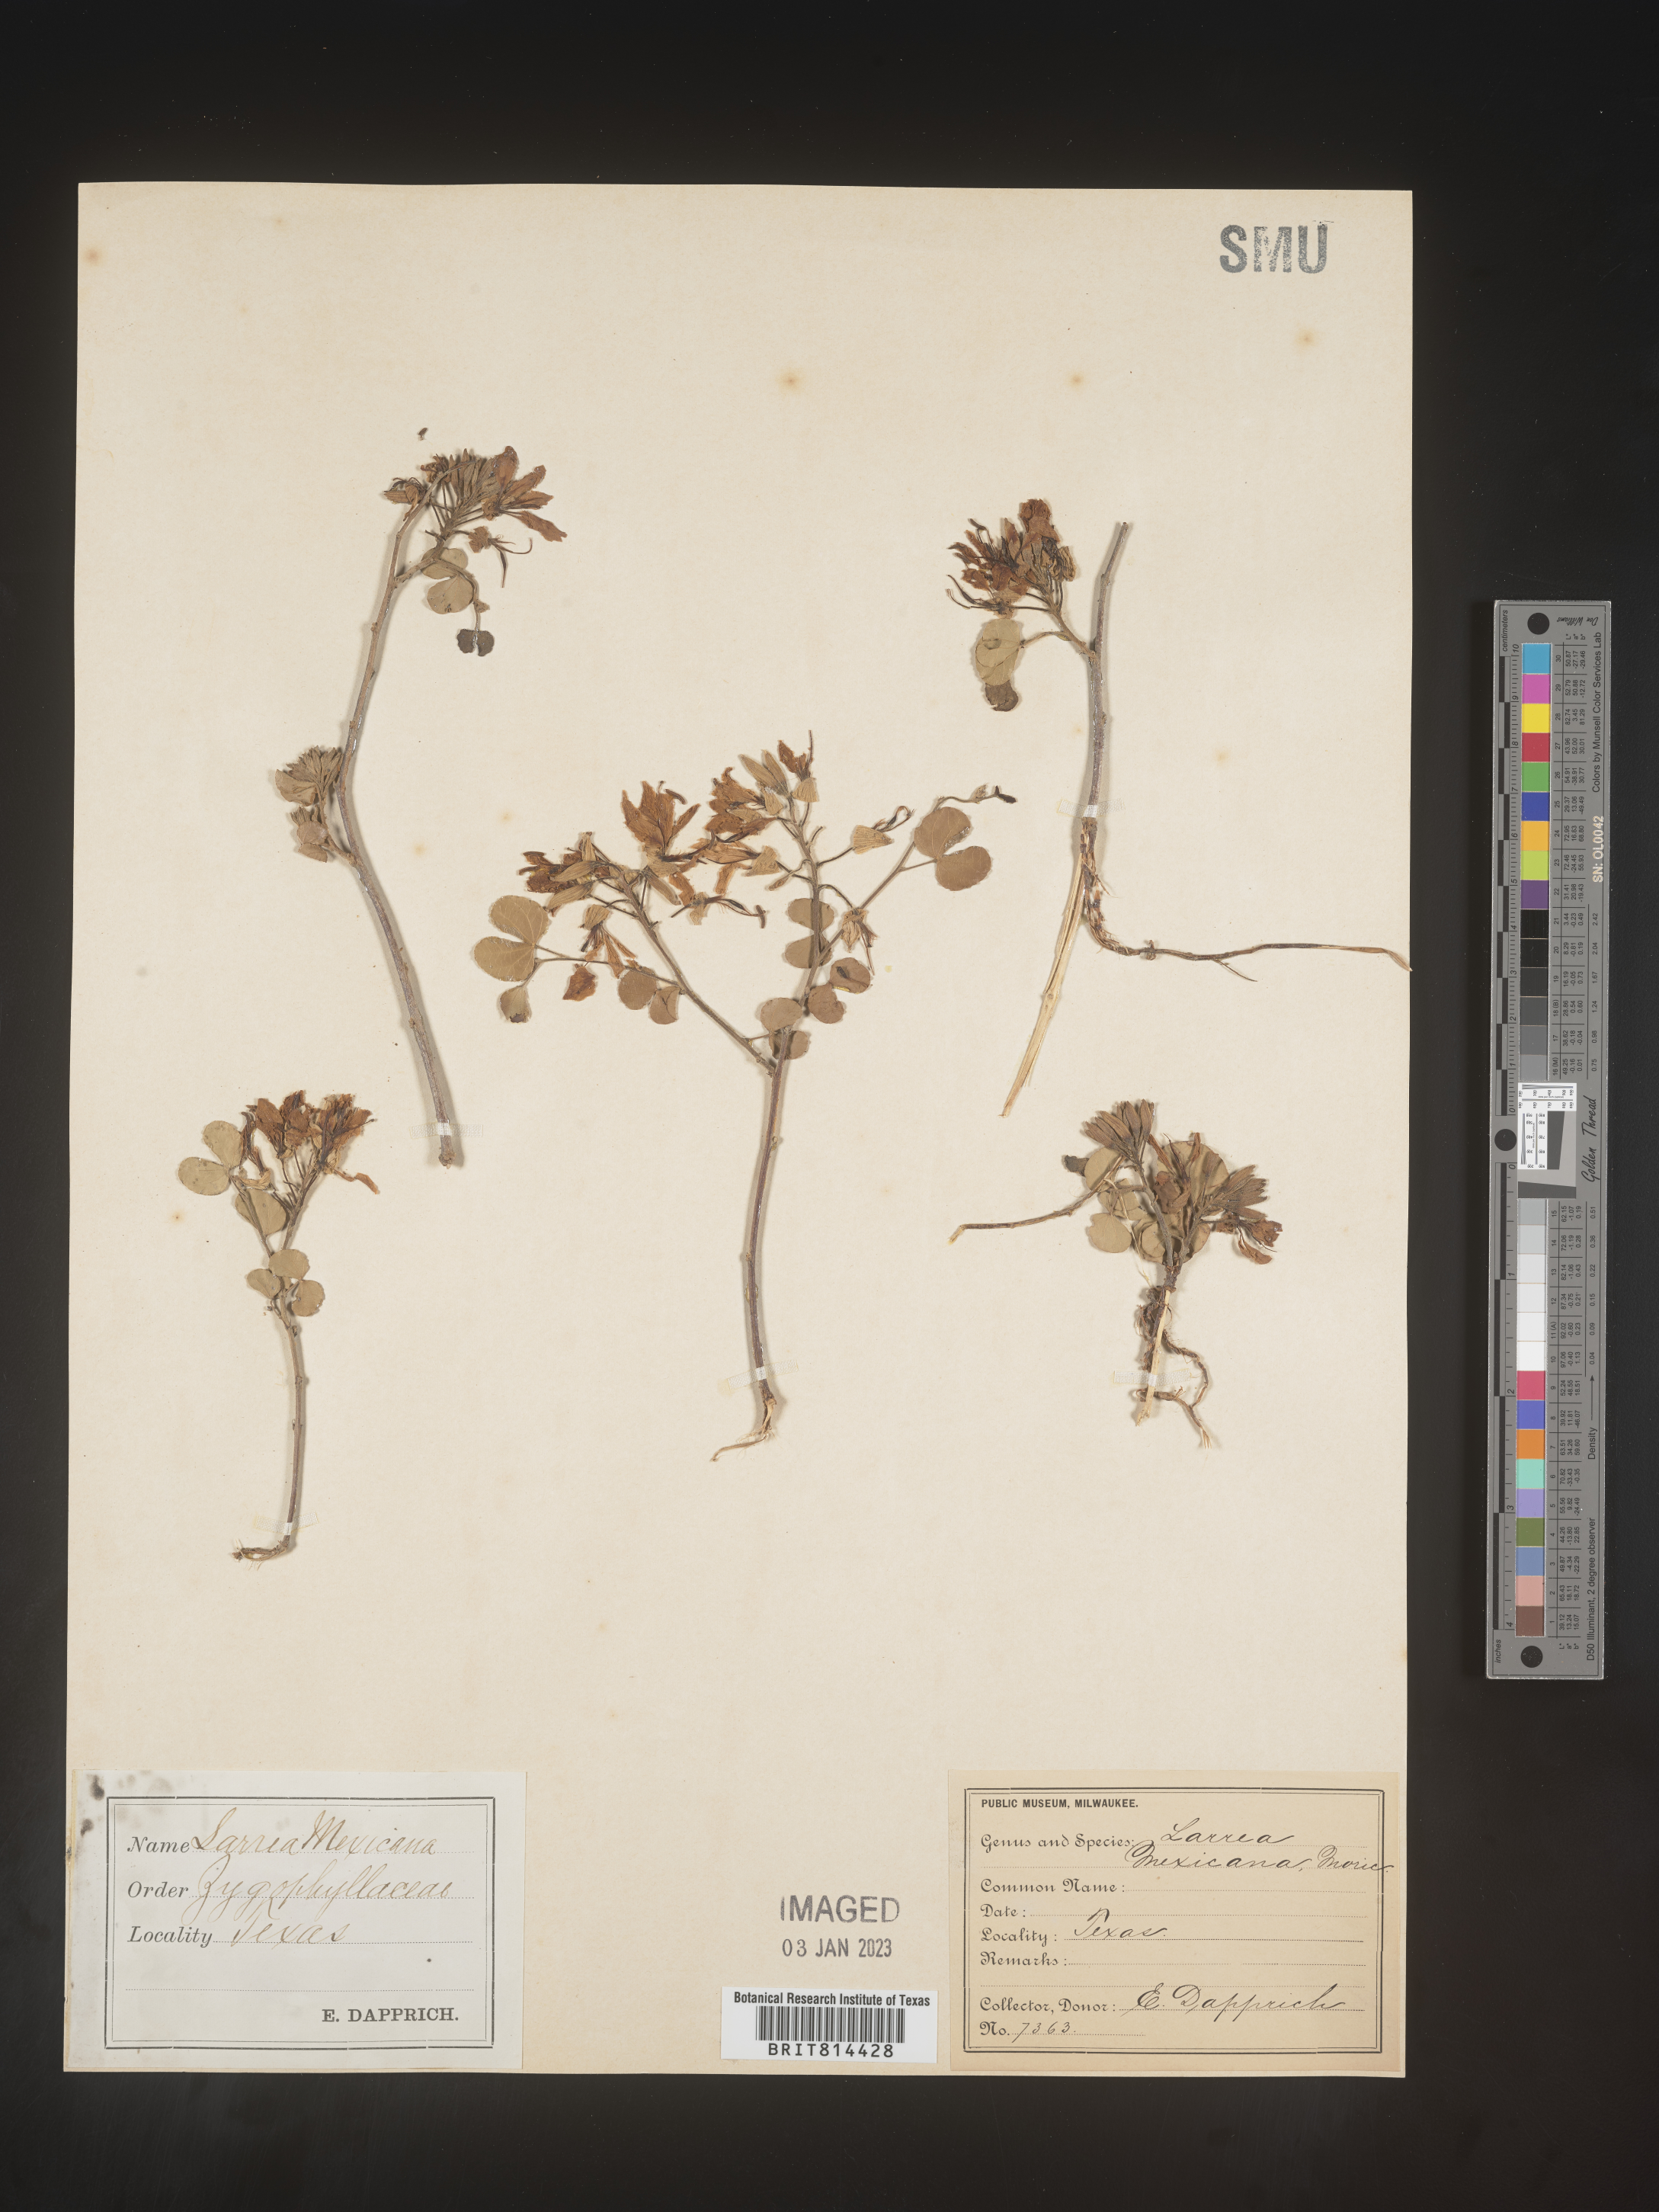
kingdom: Plantae
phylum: Tracheophyta
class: Magnoliopsida
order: Fabales
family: Fabaceae
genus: Bauhinia
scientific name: Bauhinia
